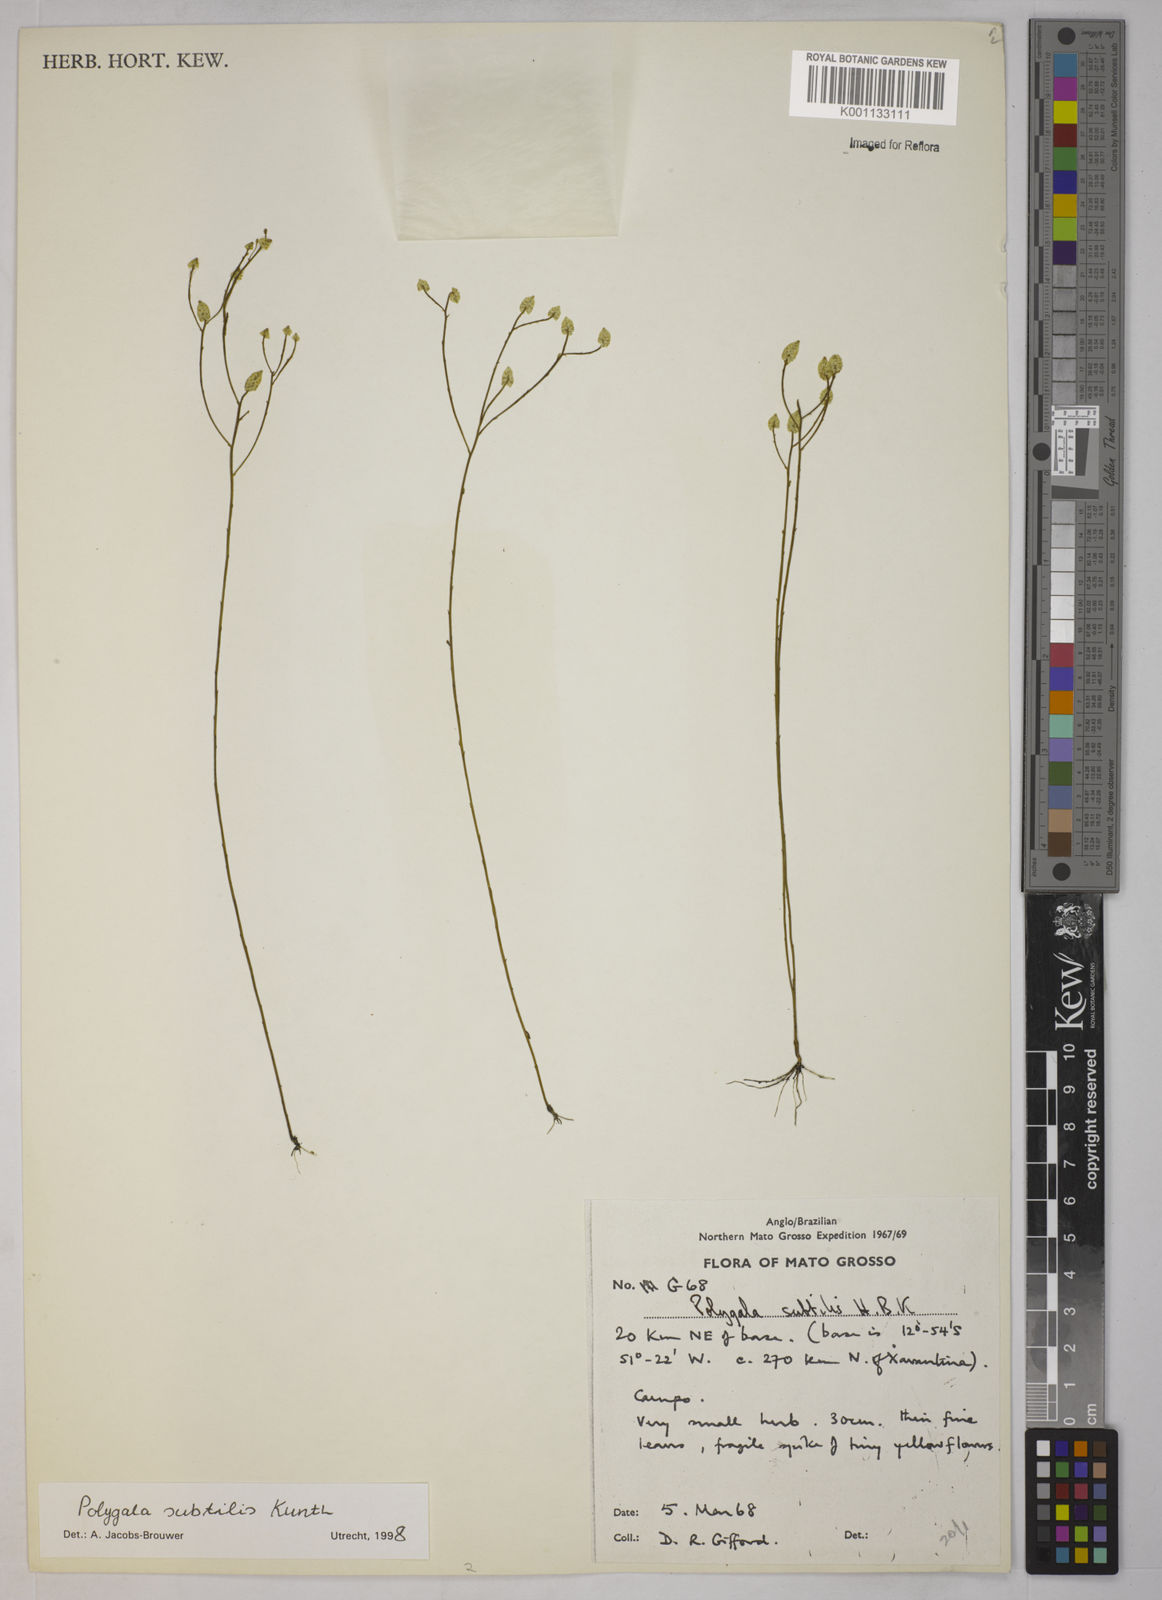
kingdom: Plantae
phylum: Tracheophyta
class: Magnoliopsida
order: Fabales
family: Polygalaceae
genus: Polygala
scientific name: Polygala subtilis
